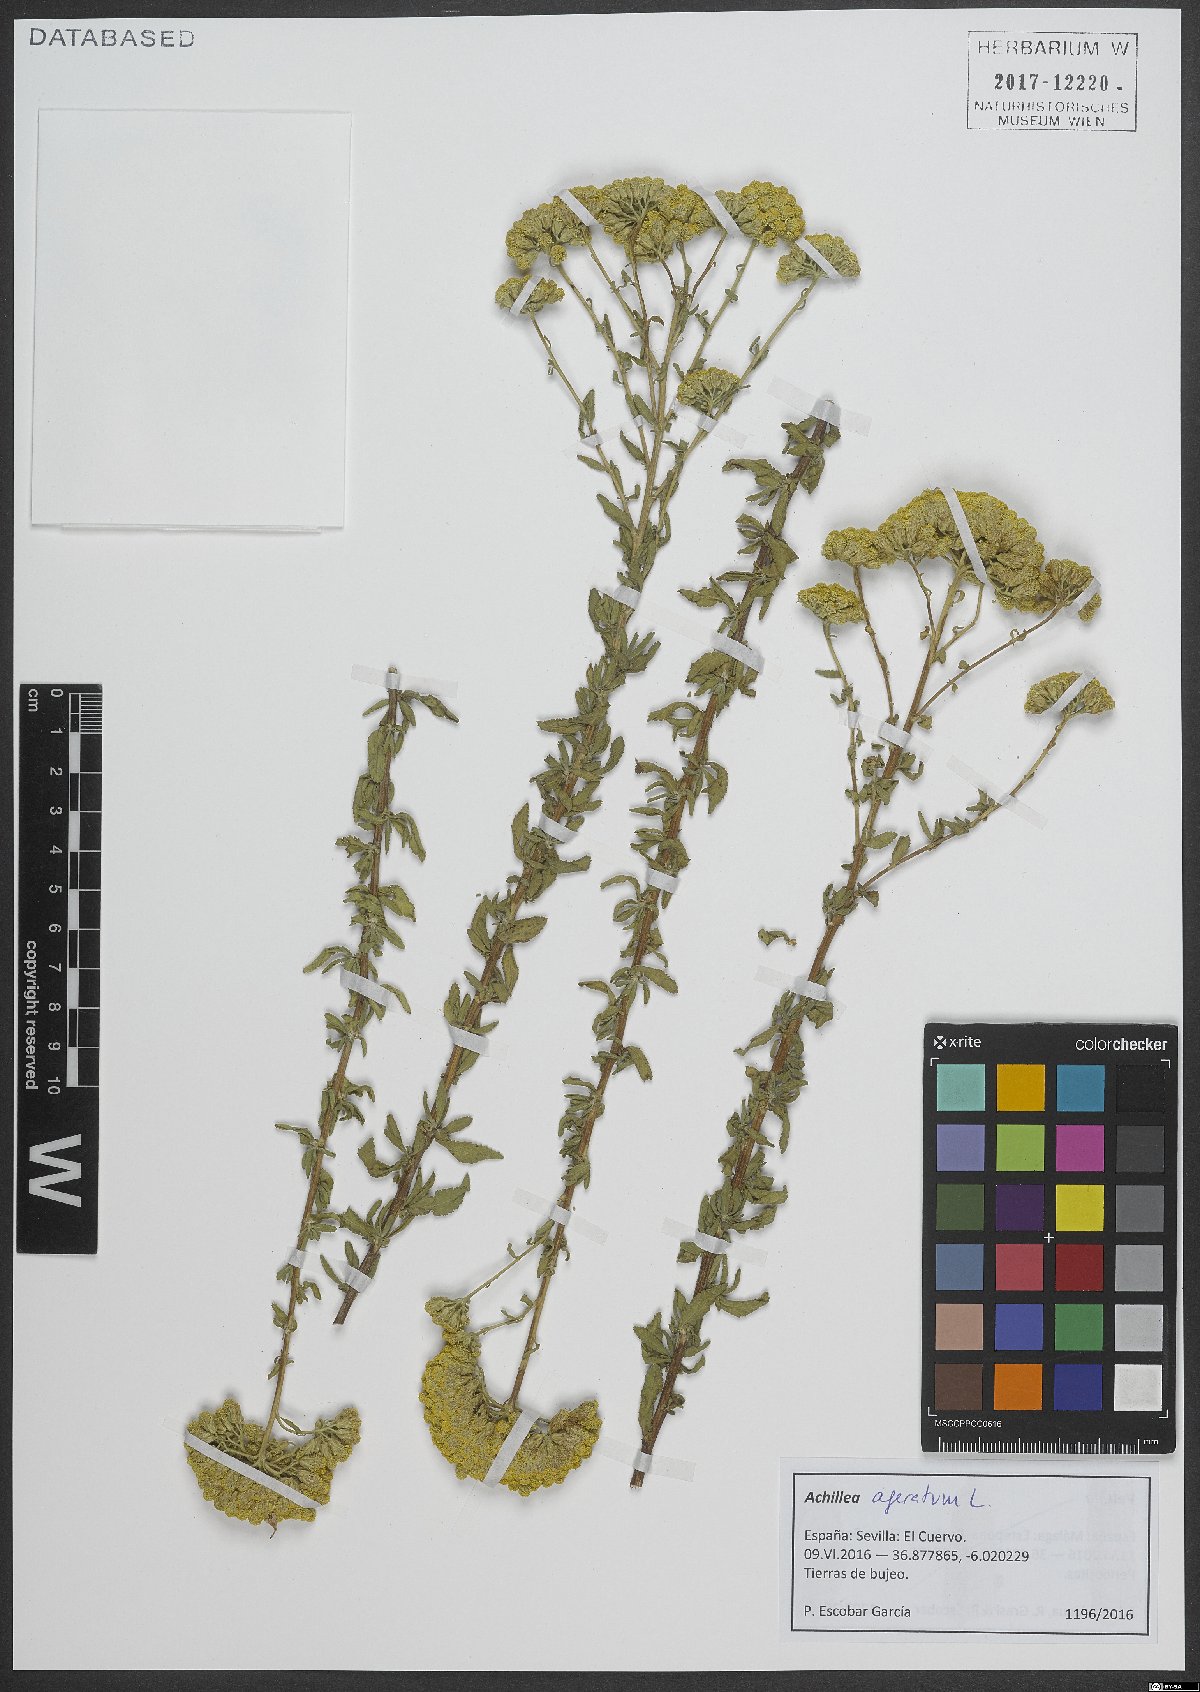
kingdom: Plantae
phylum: Tracheophyta
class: Magnoliopsida
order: Asterales
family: Asteraceae
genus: Achillea
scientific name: Achillea ageratum
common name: Sweet-nancy
